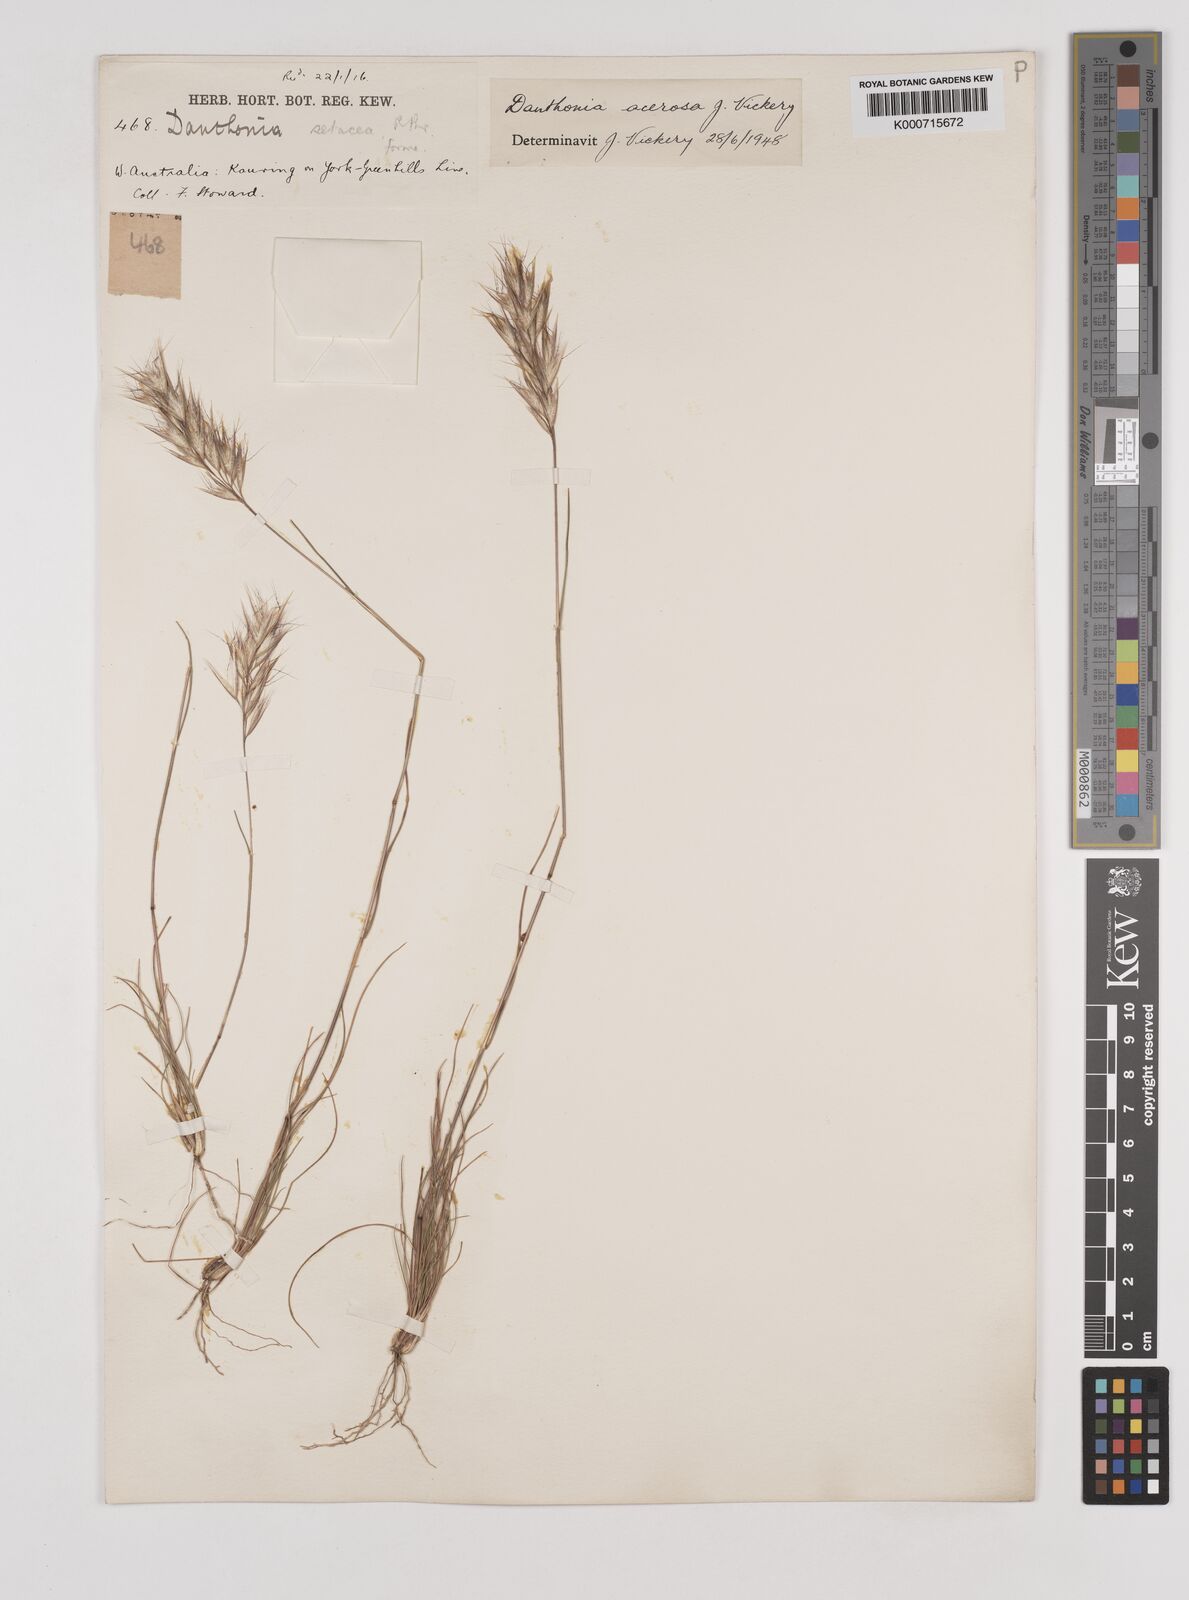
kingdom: Plantae
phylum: Tracheophyta
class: Liliopsida
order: Poales
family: Poaceae
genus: Rytidosperma
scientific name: Rytidosperma acerosum
